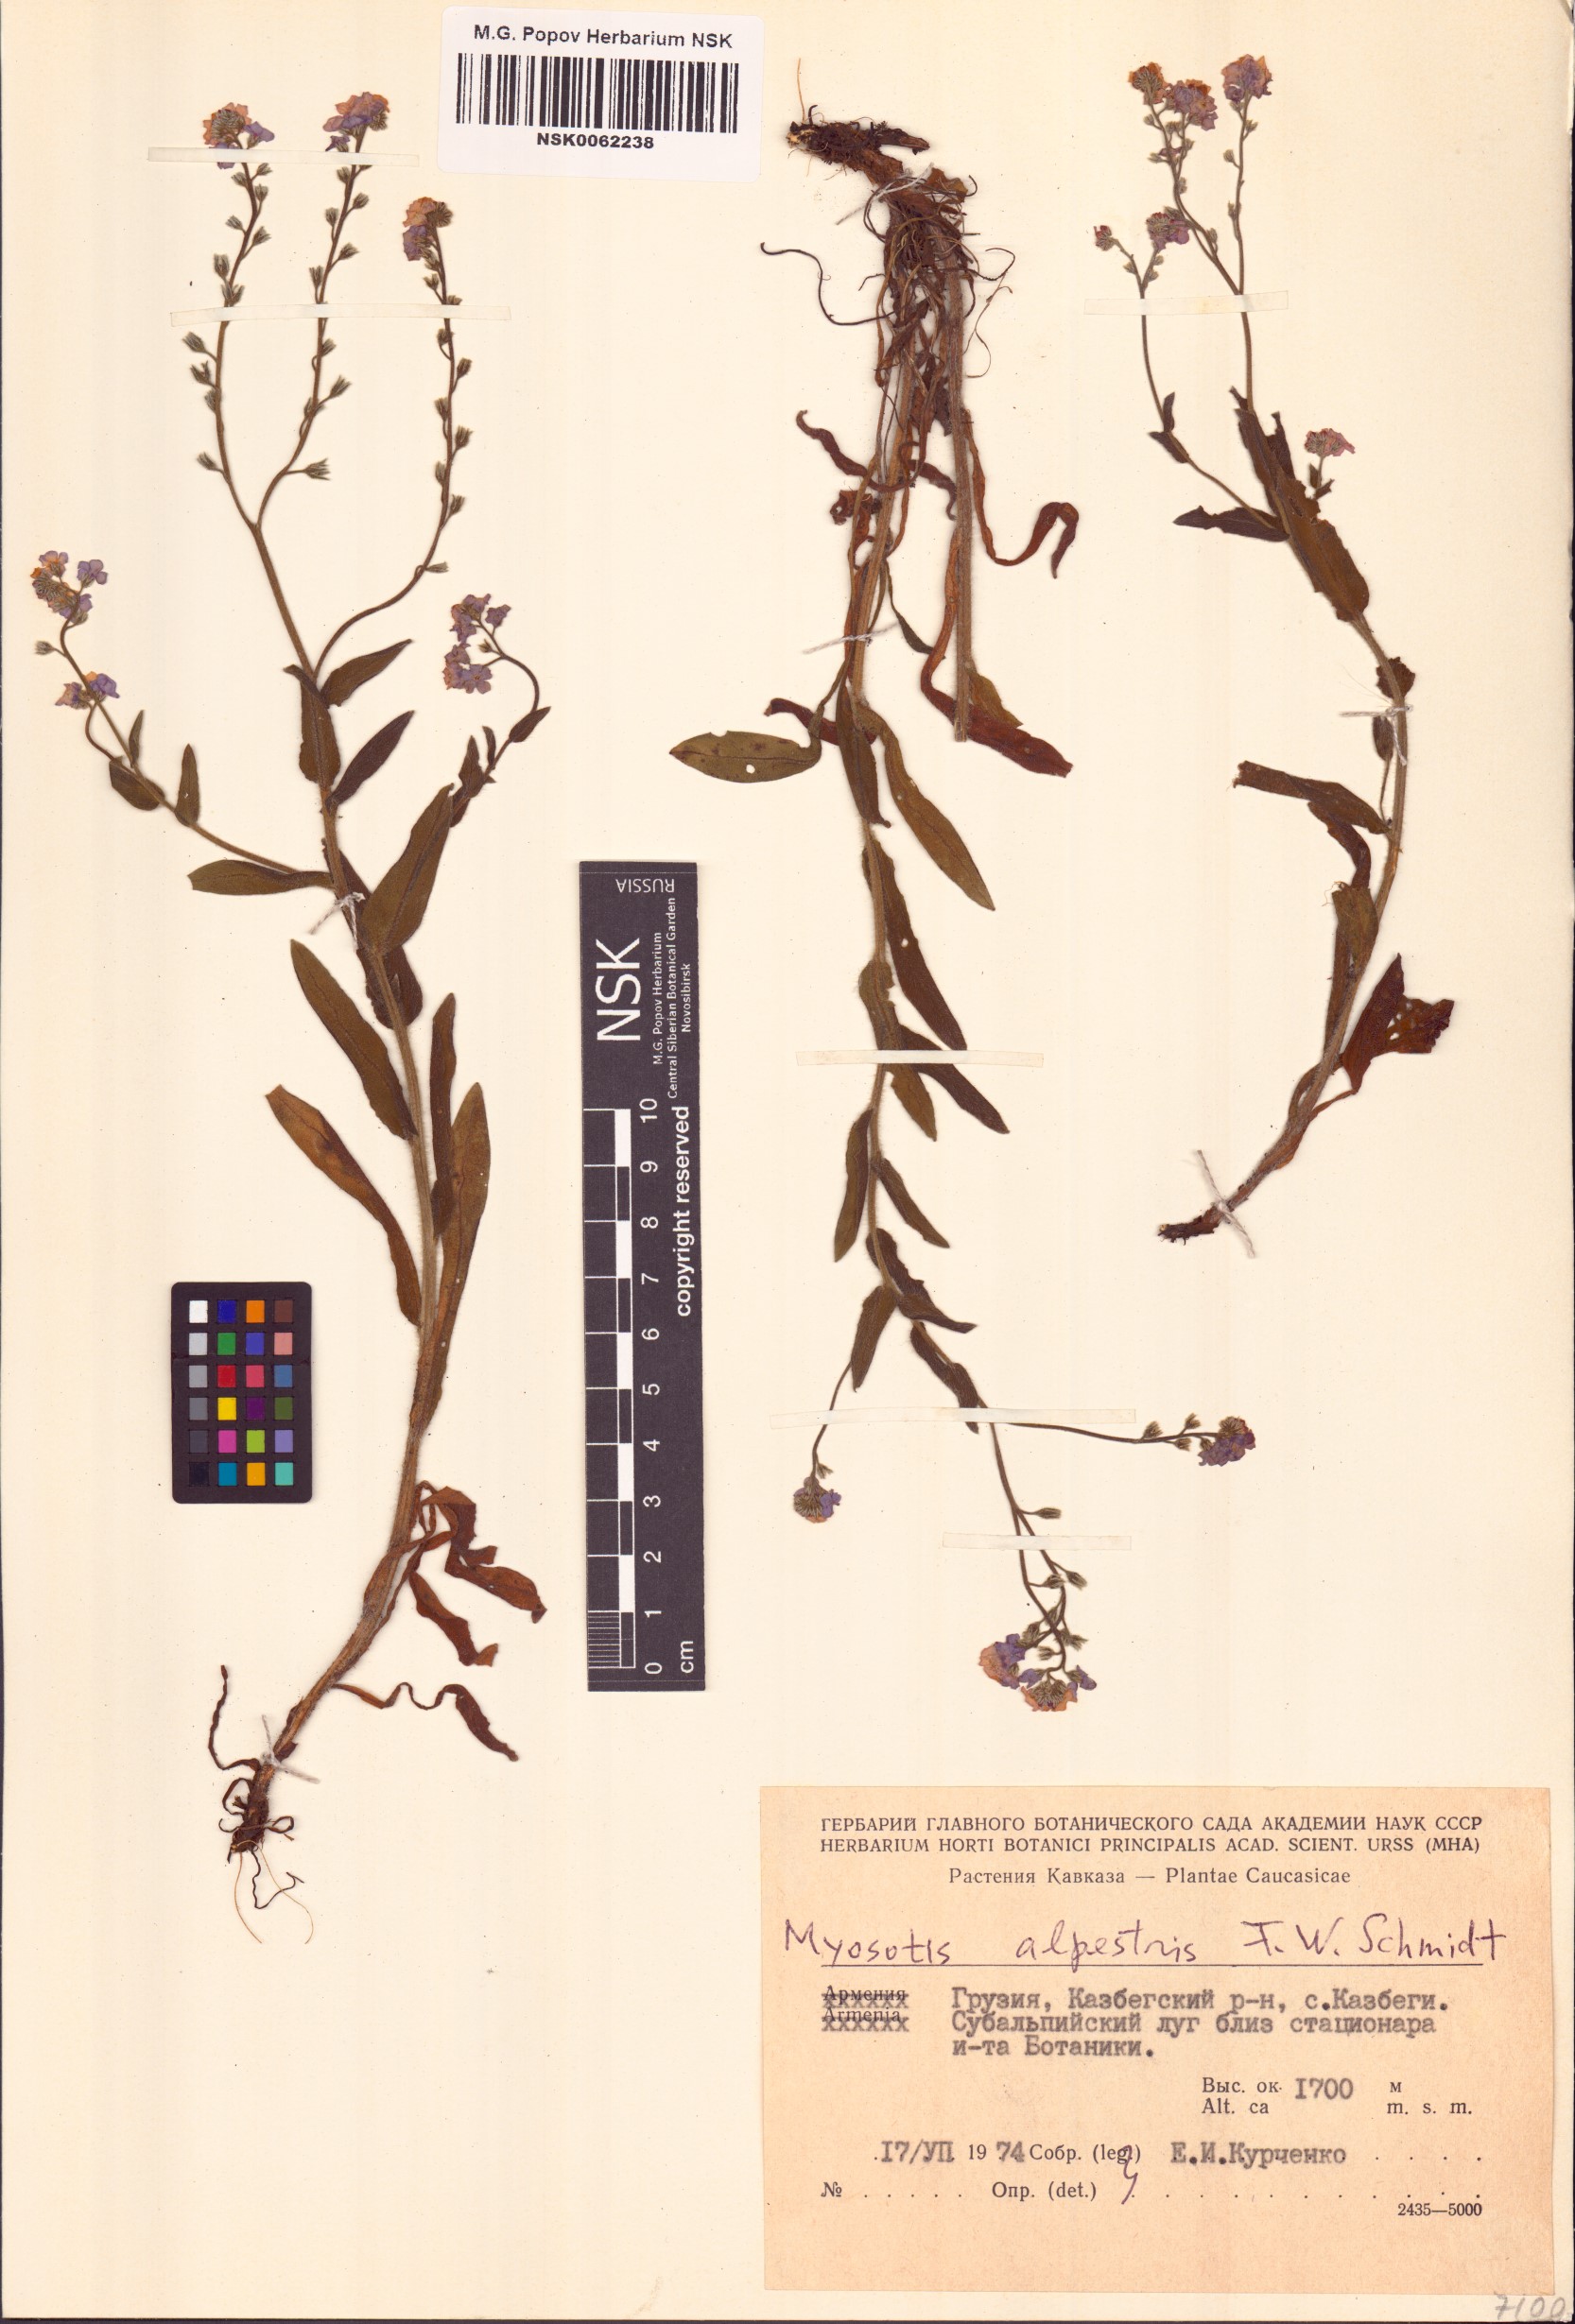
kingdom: Plantae
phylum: Tracheophyta
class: Magnoliopsida
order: Boraginales
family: Boraginaceae
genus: Myosotis
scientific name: Myosotis alpestris
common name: Alpine forget-me-not
